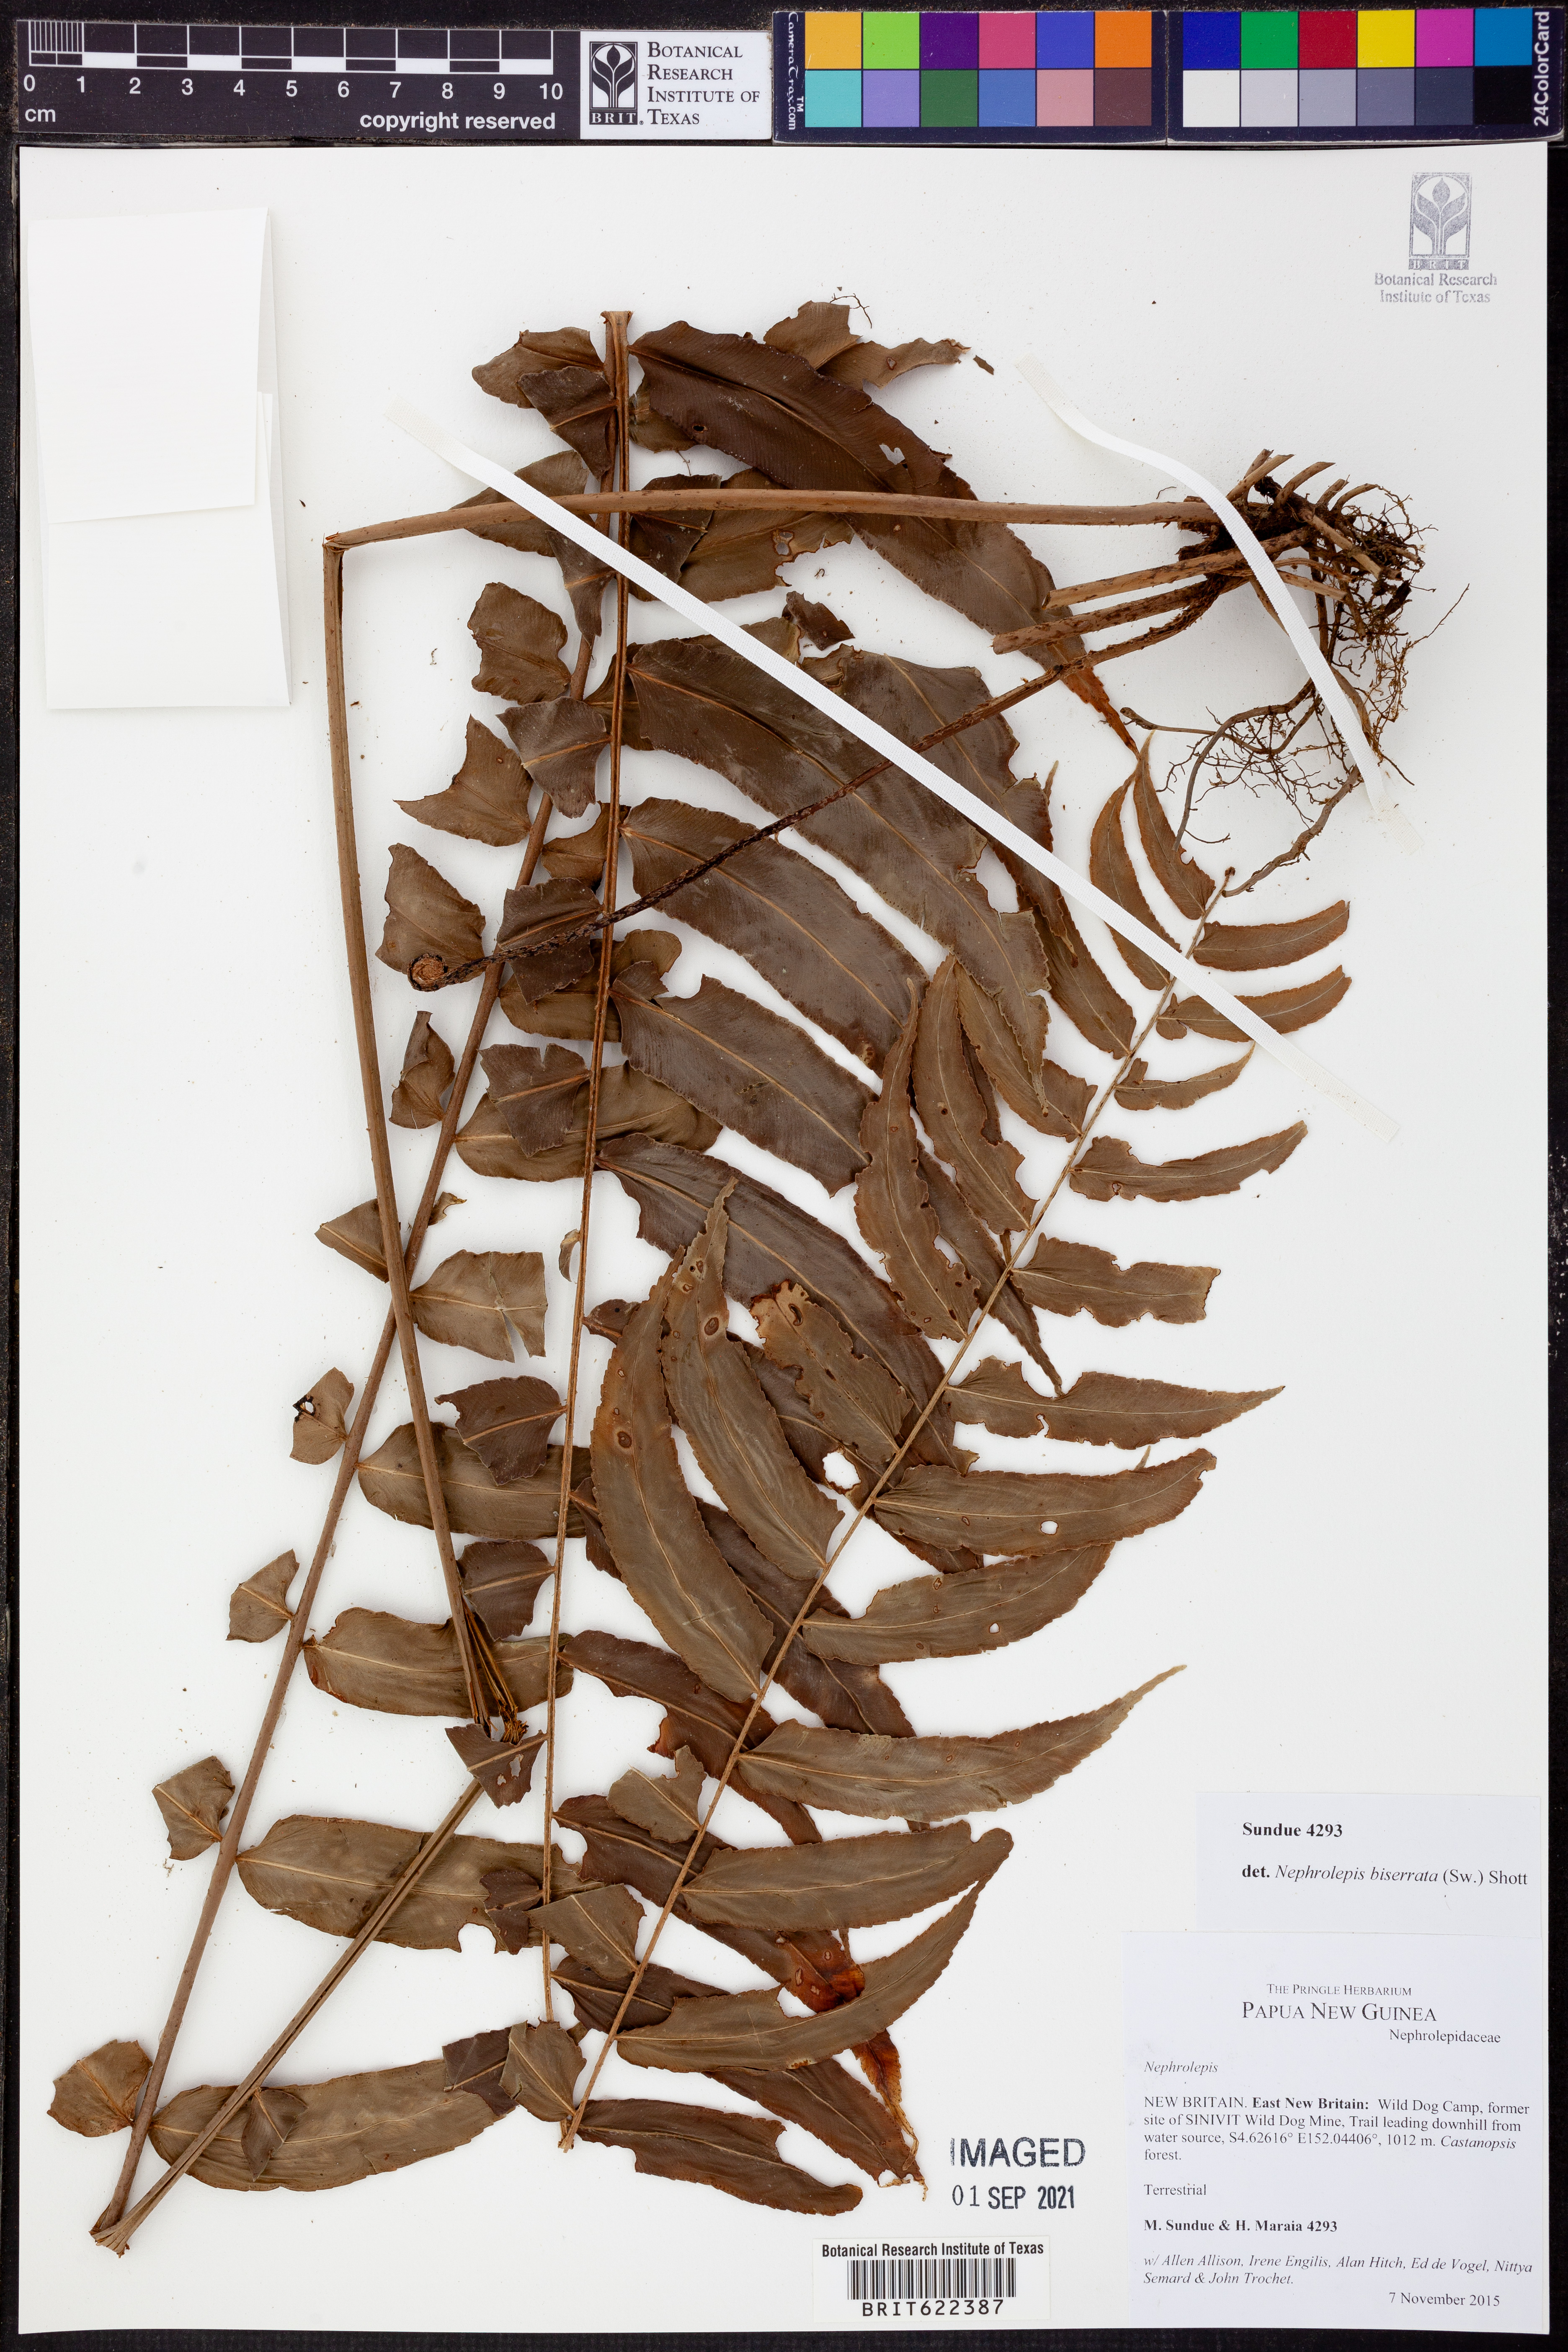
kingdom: Plantae
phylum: Tracheophyta
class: Polypodiopsida
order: Polypodiales
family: Nephrolepidaceae
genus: Nephrolepis
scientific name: Nephrolepis biserrata
